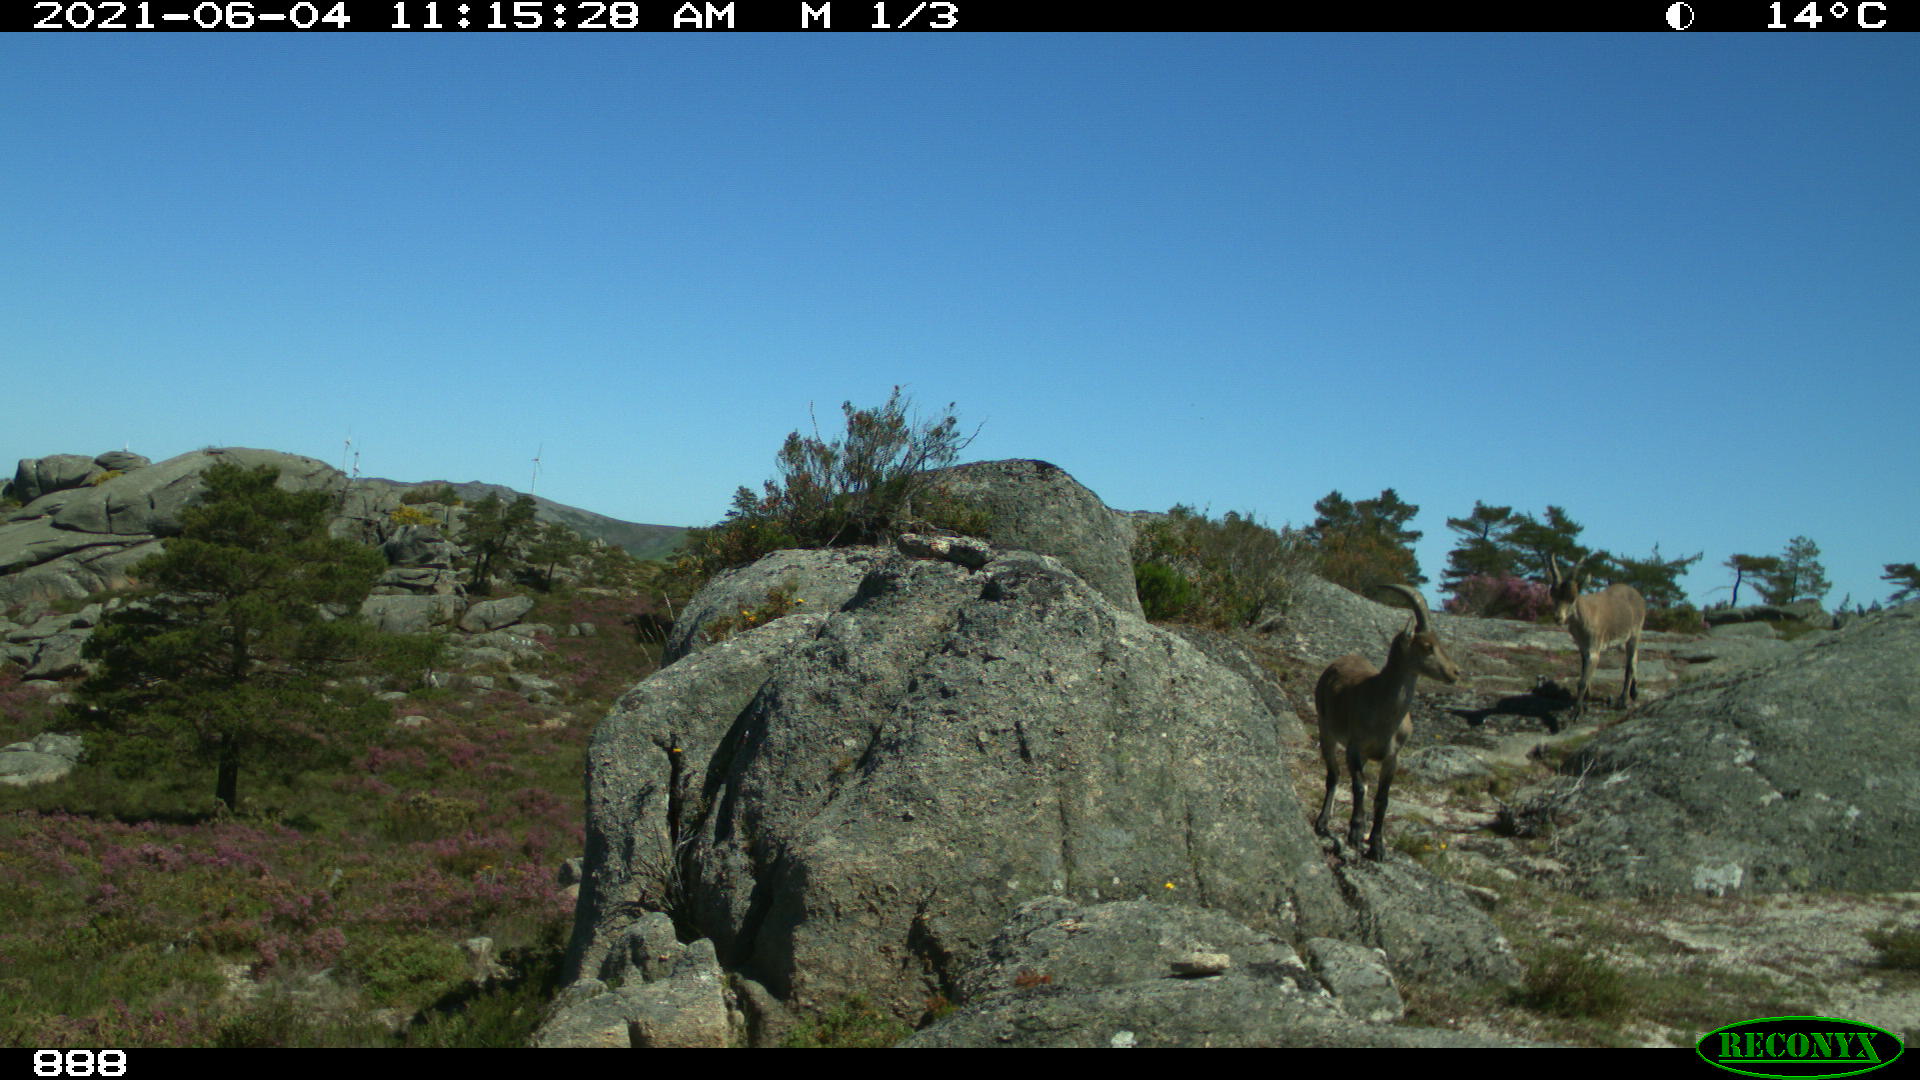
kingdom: Animalia
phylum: Chordata
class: Mammalia
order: Artiodactyla
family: Bovidae
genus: Capra
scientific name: Capra pyrenaica
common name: Spanish ibex
